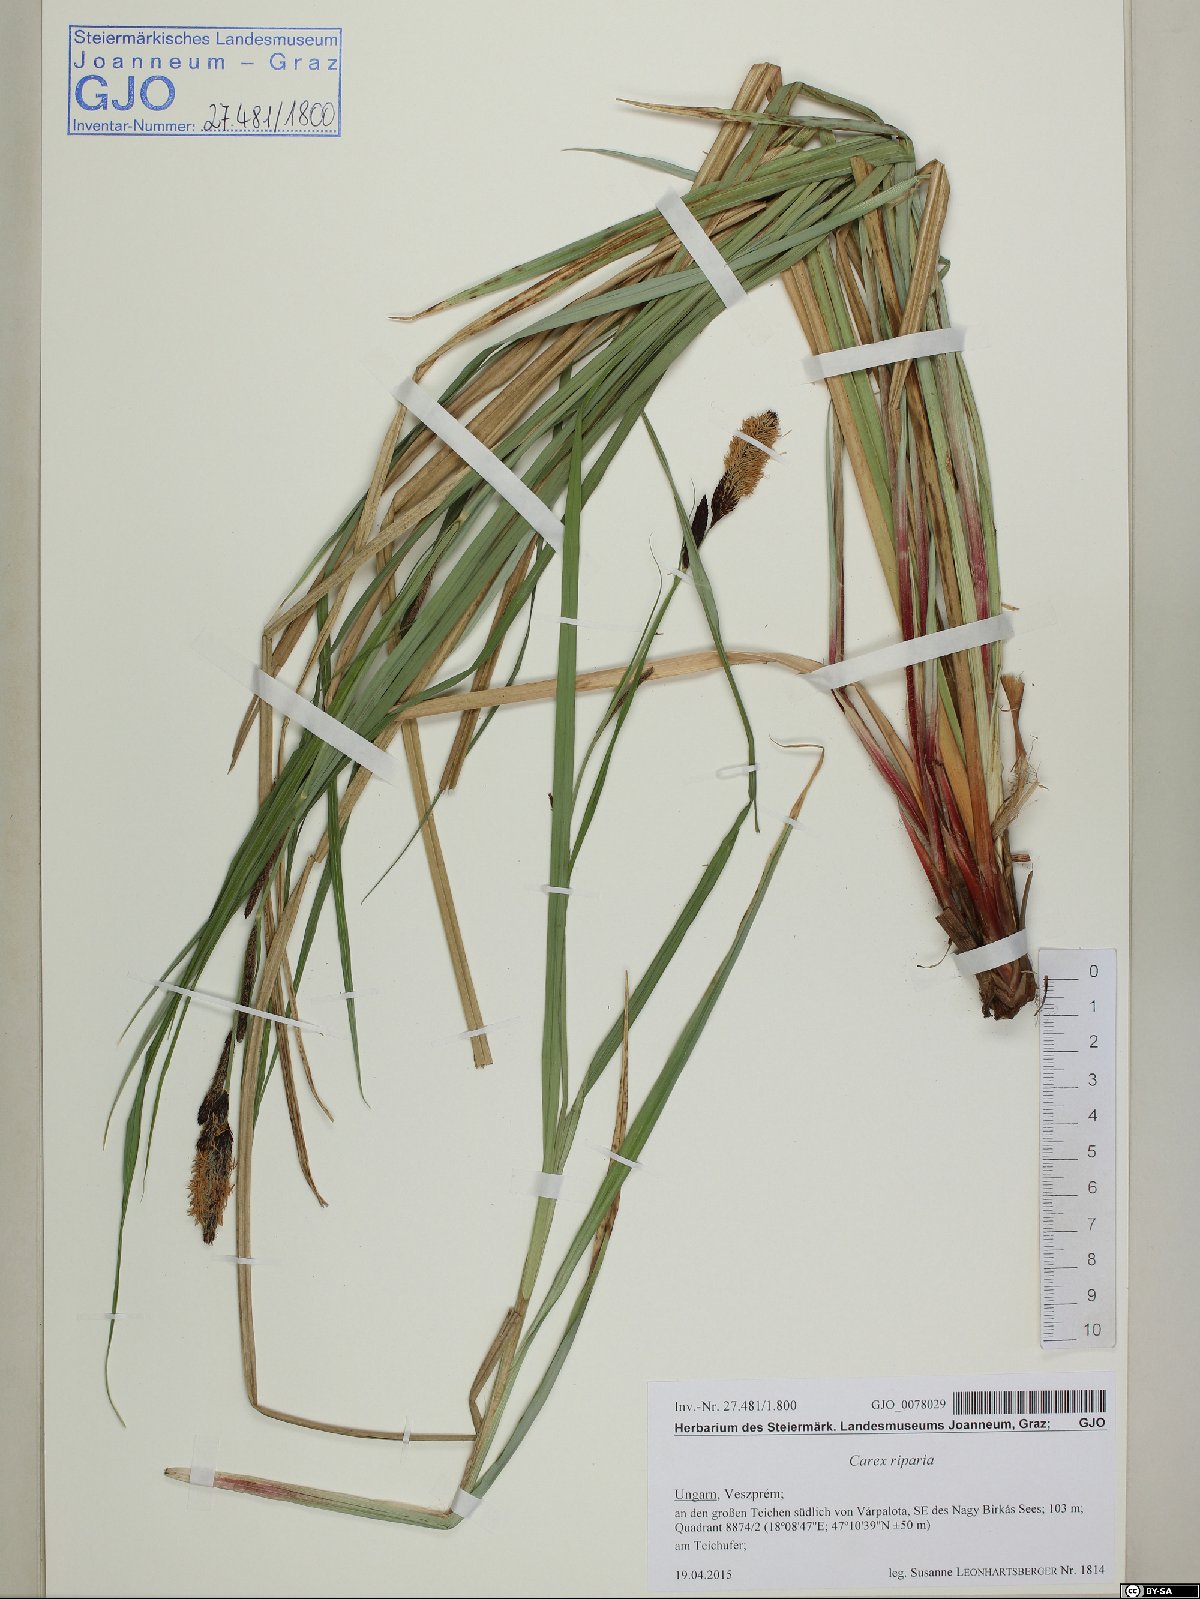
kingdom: Plantae
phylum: Tracheophyta
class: Liliopsida
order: Poales
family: Cyperaceae
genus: Carex
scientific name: Carex riparia
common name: Greater pond-sedge
